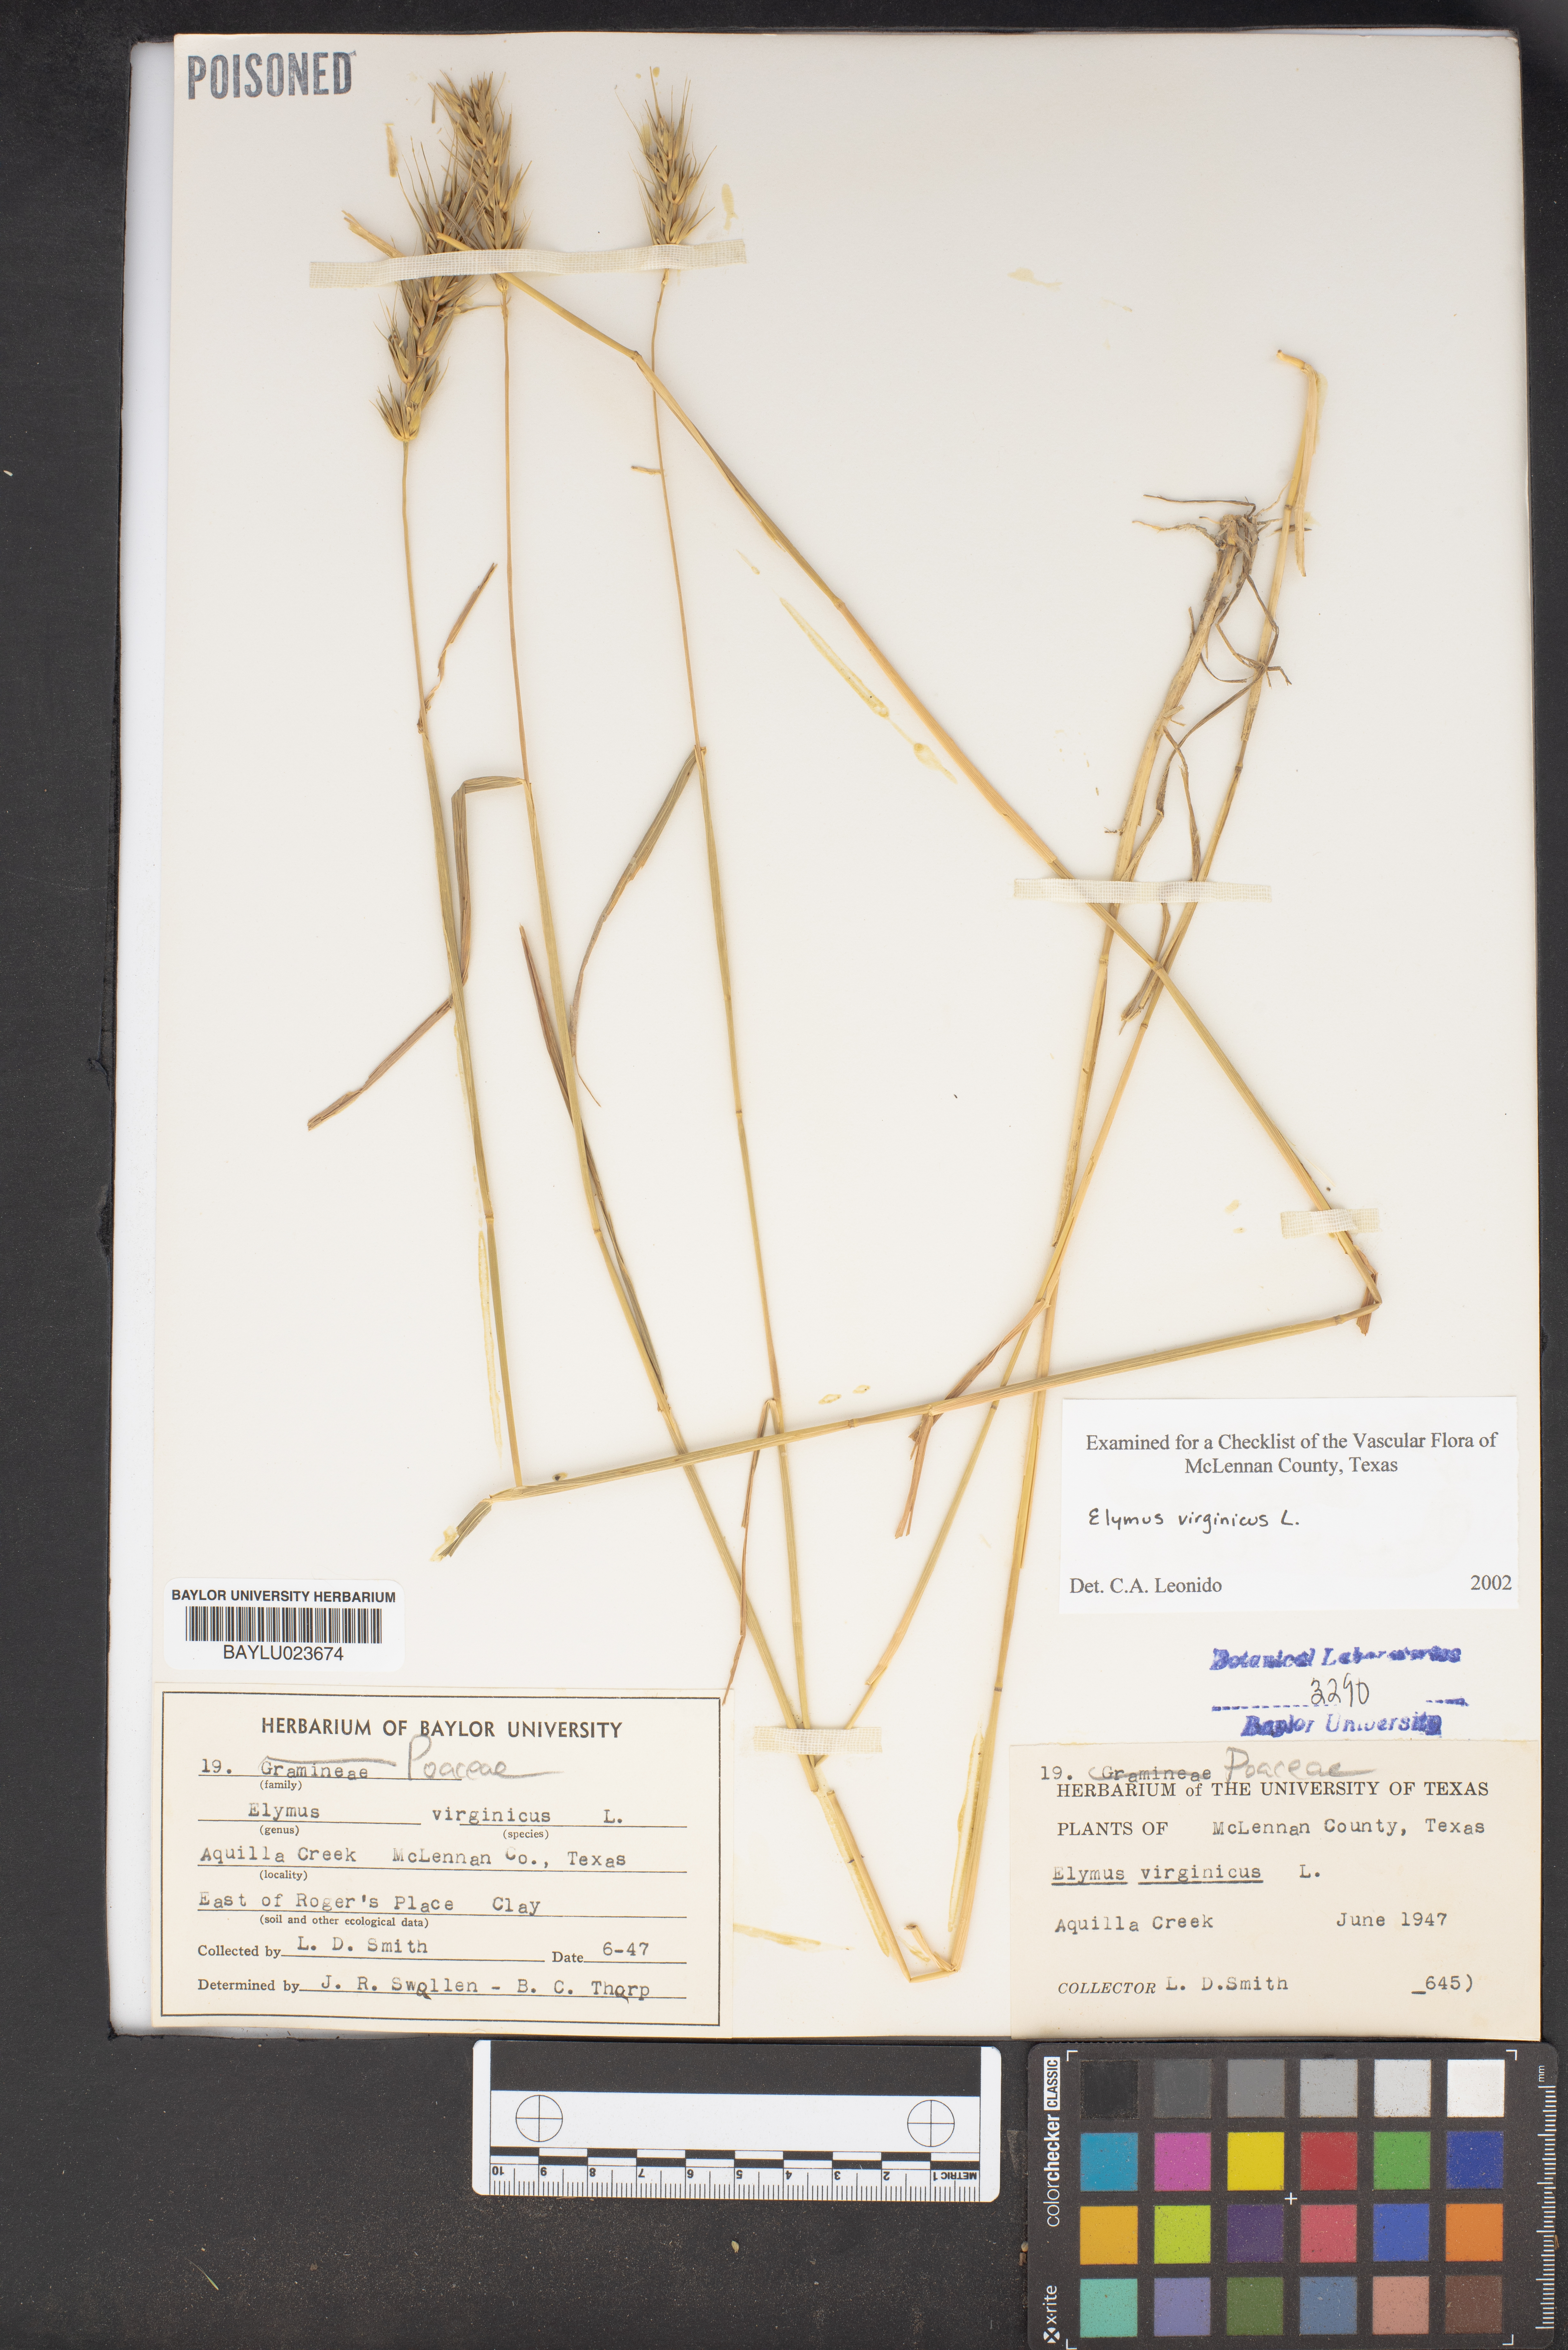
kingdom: Plantae
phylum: Tracheophyta
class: Liliopsida
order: Poales
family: Poaceae
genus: Elymus
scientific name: Elymus virginicus
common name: Common eastern wildrye
